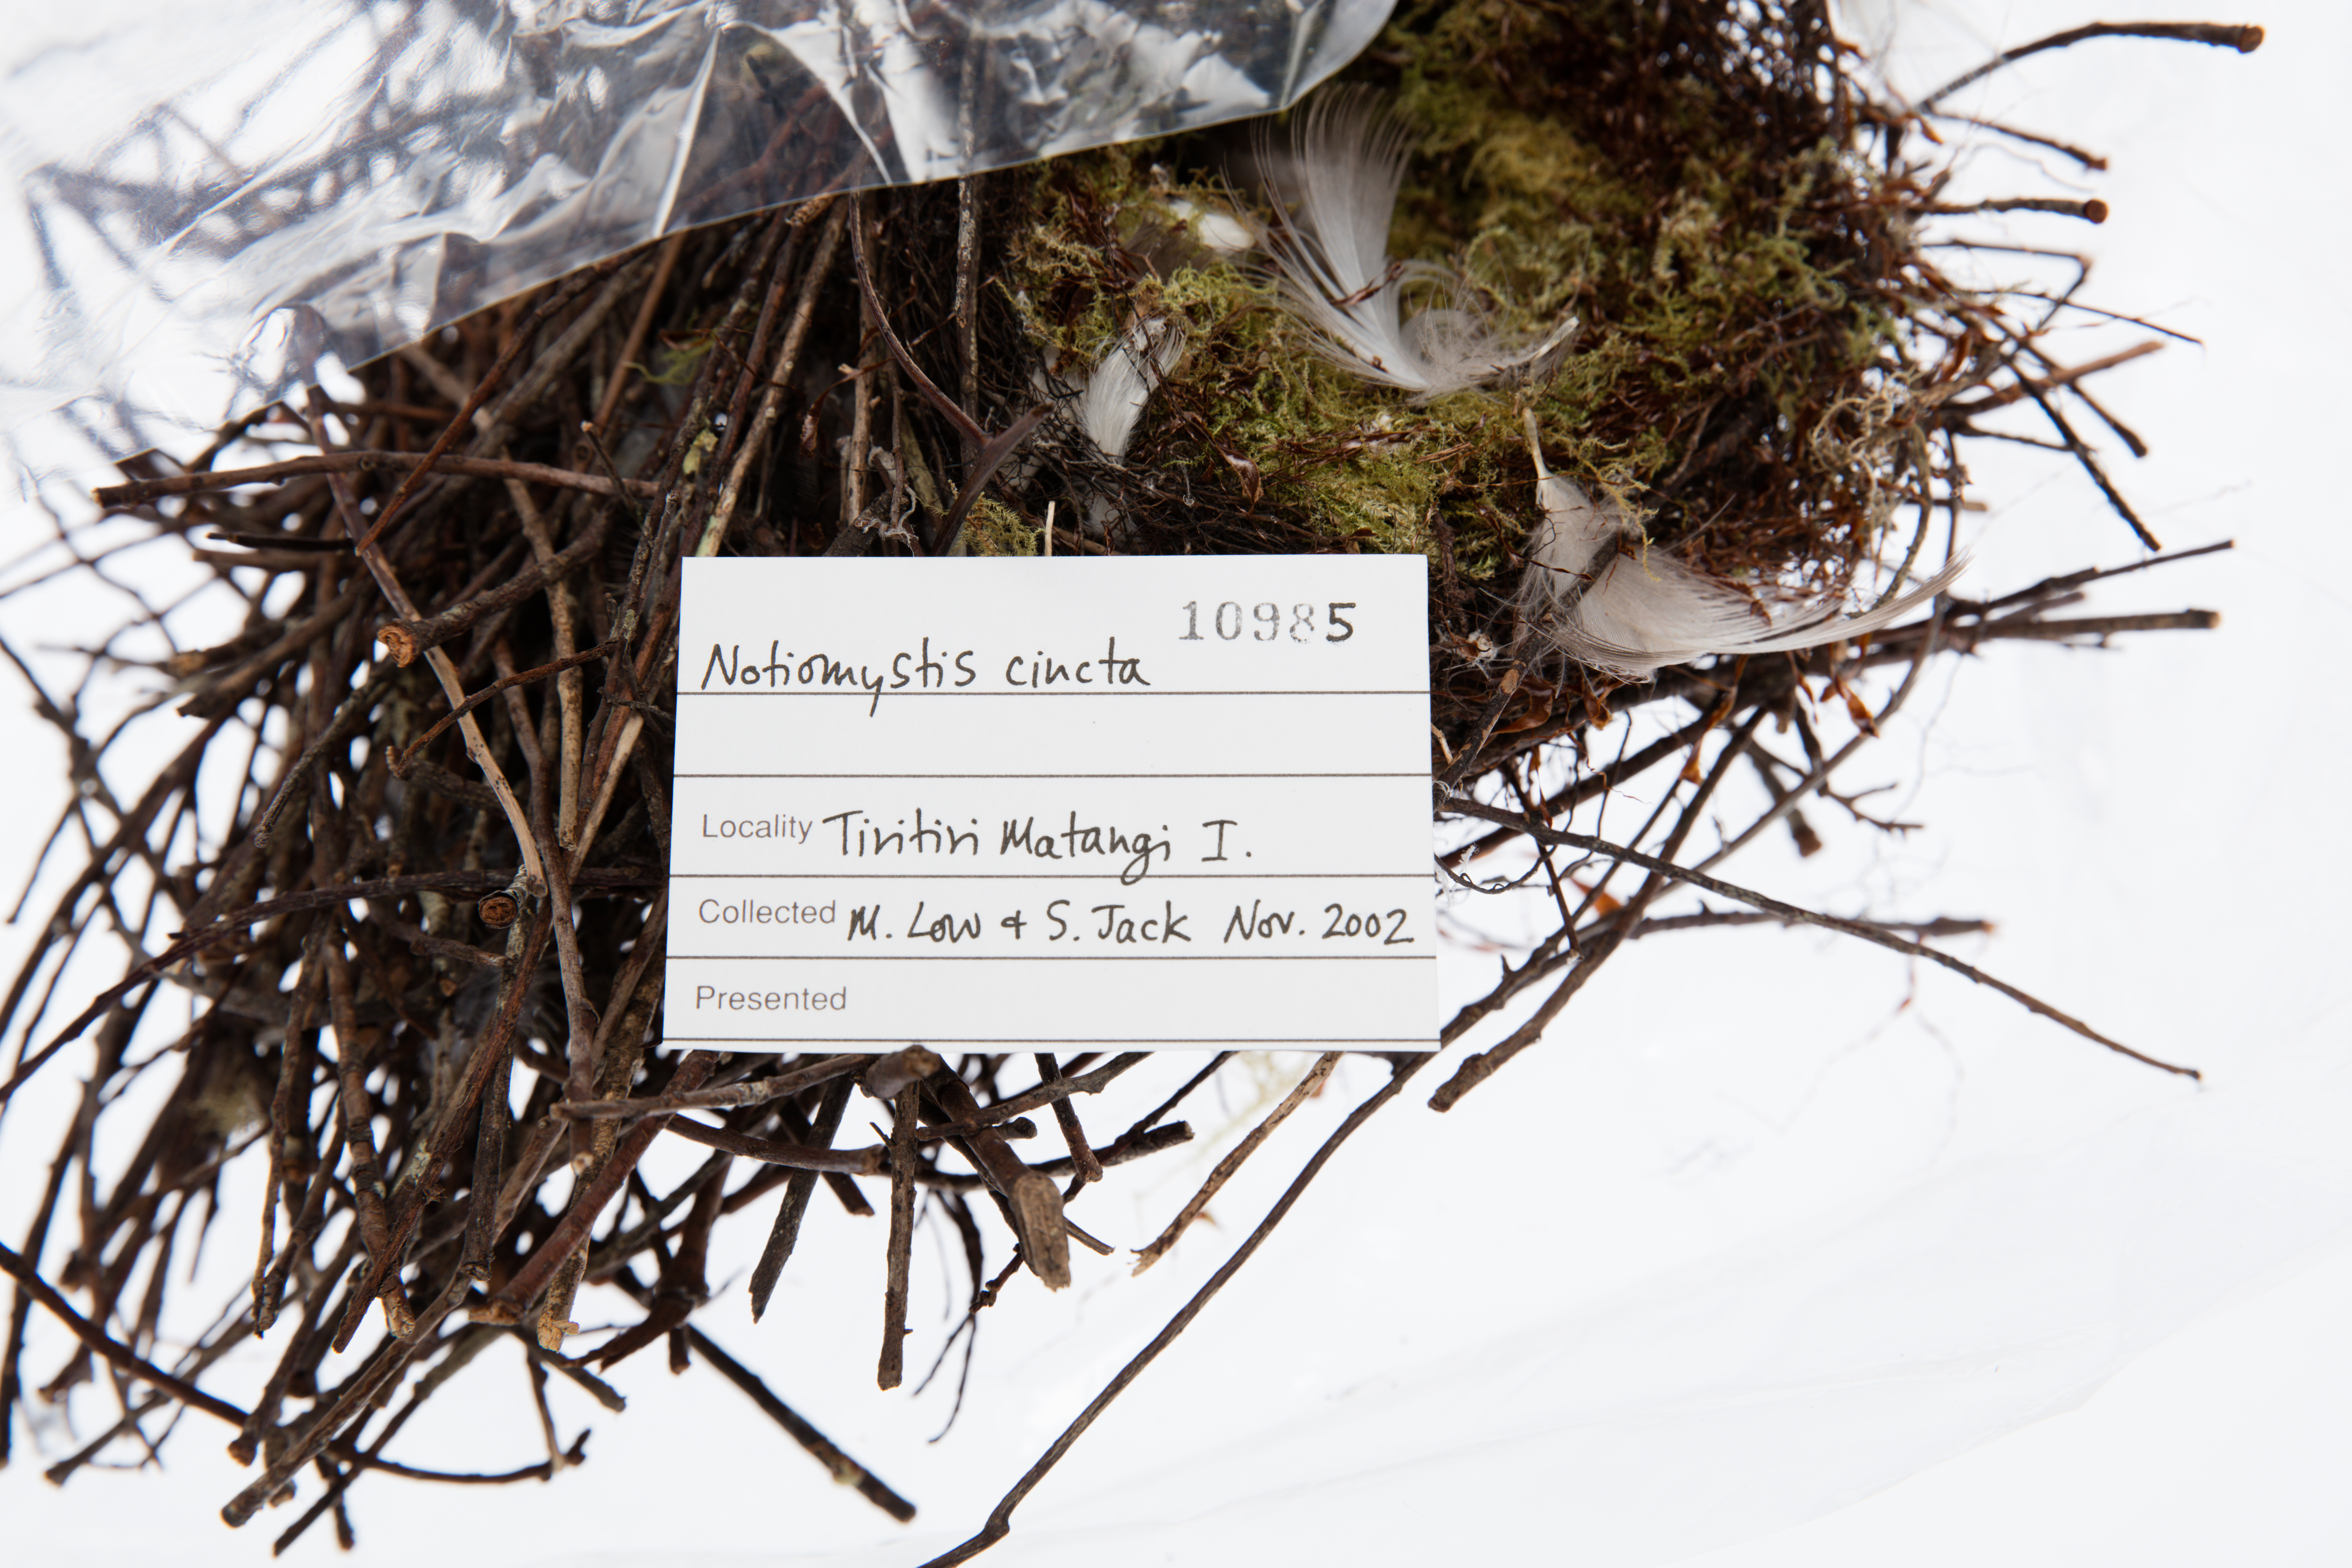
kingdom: Animalia
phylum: Chordata
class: Aves
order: Passeriformes
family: Notiomystidae
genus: Notiomystis
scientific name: Notiomystis cincta
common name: Stitchbird
